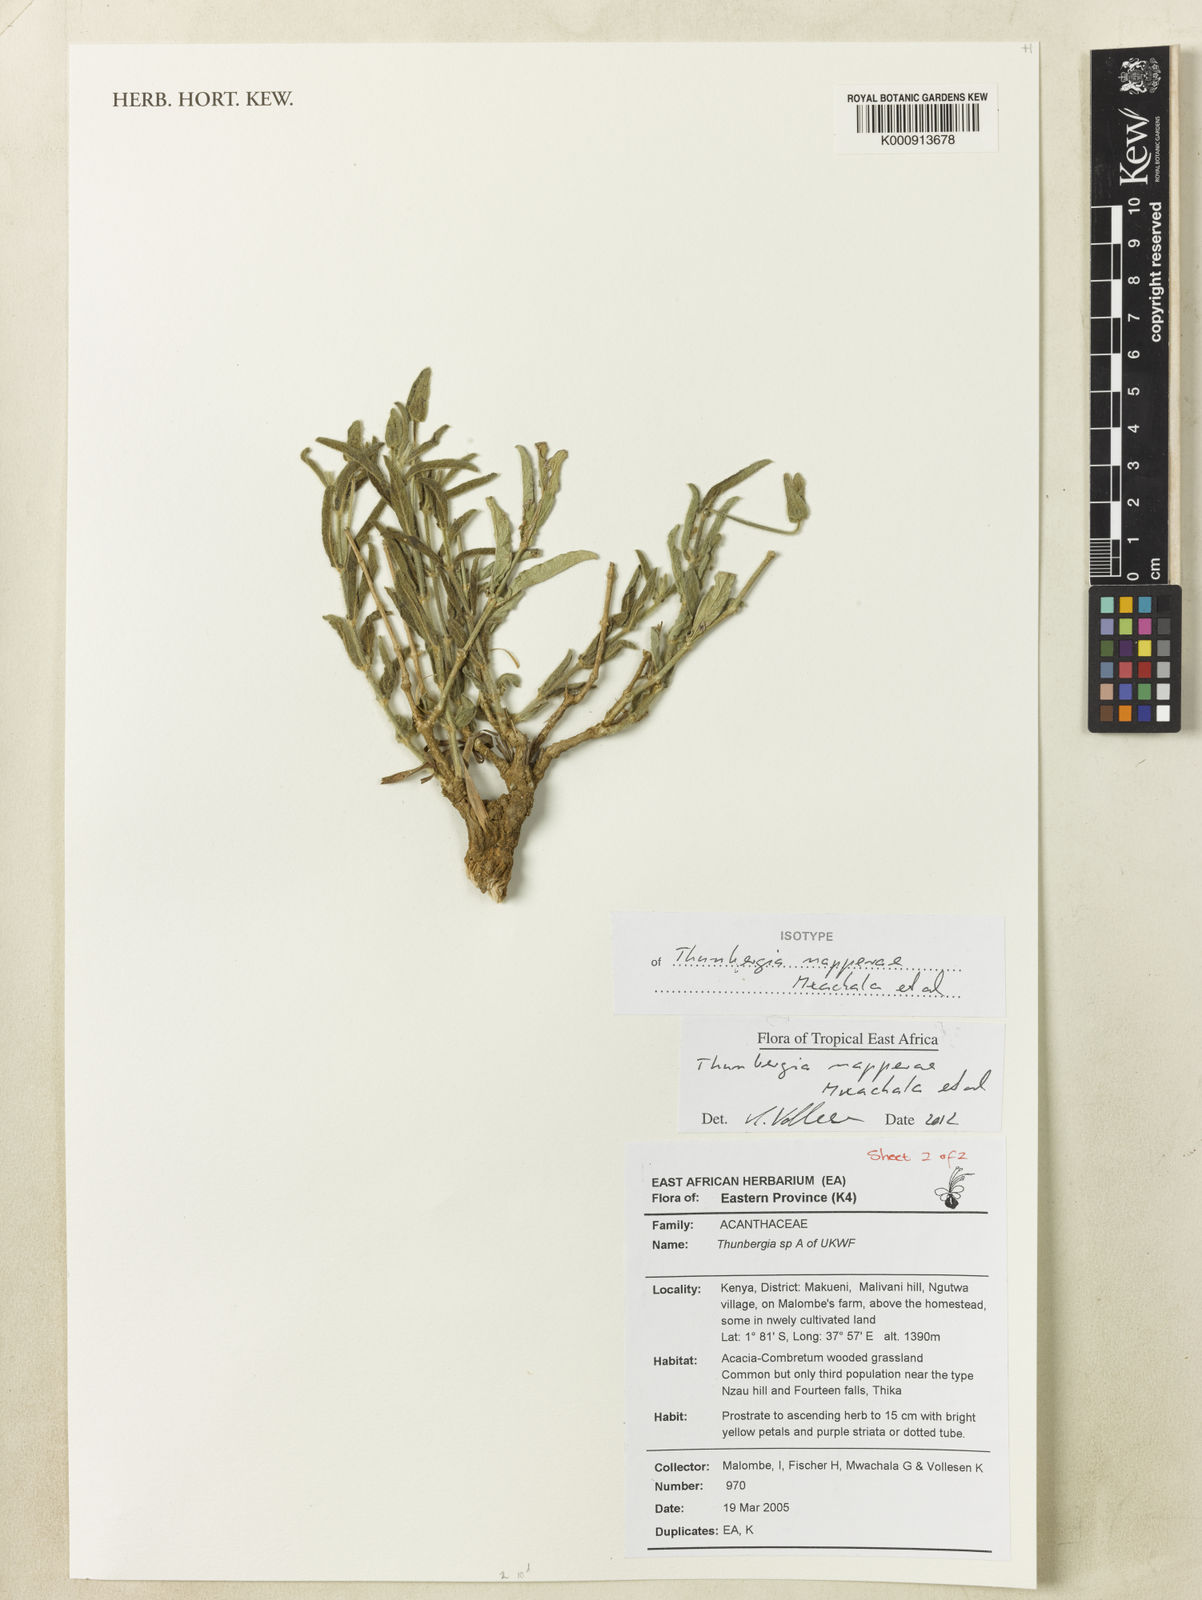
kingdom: Plantae
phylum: Tracheophyta
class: Magnoliopsida
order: Lamiales
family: Acanthaceae
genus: Thunbergia
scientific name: Thunbergia napperae
